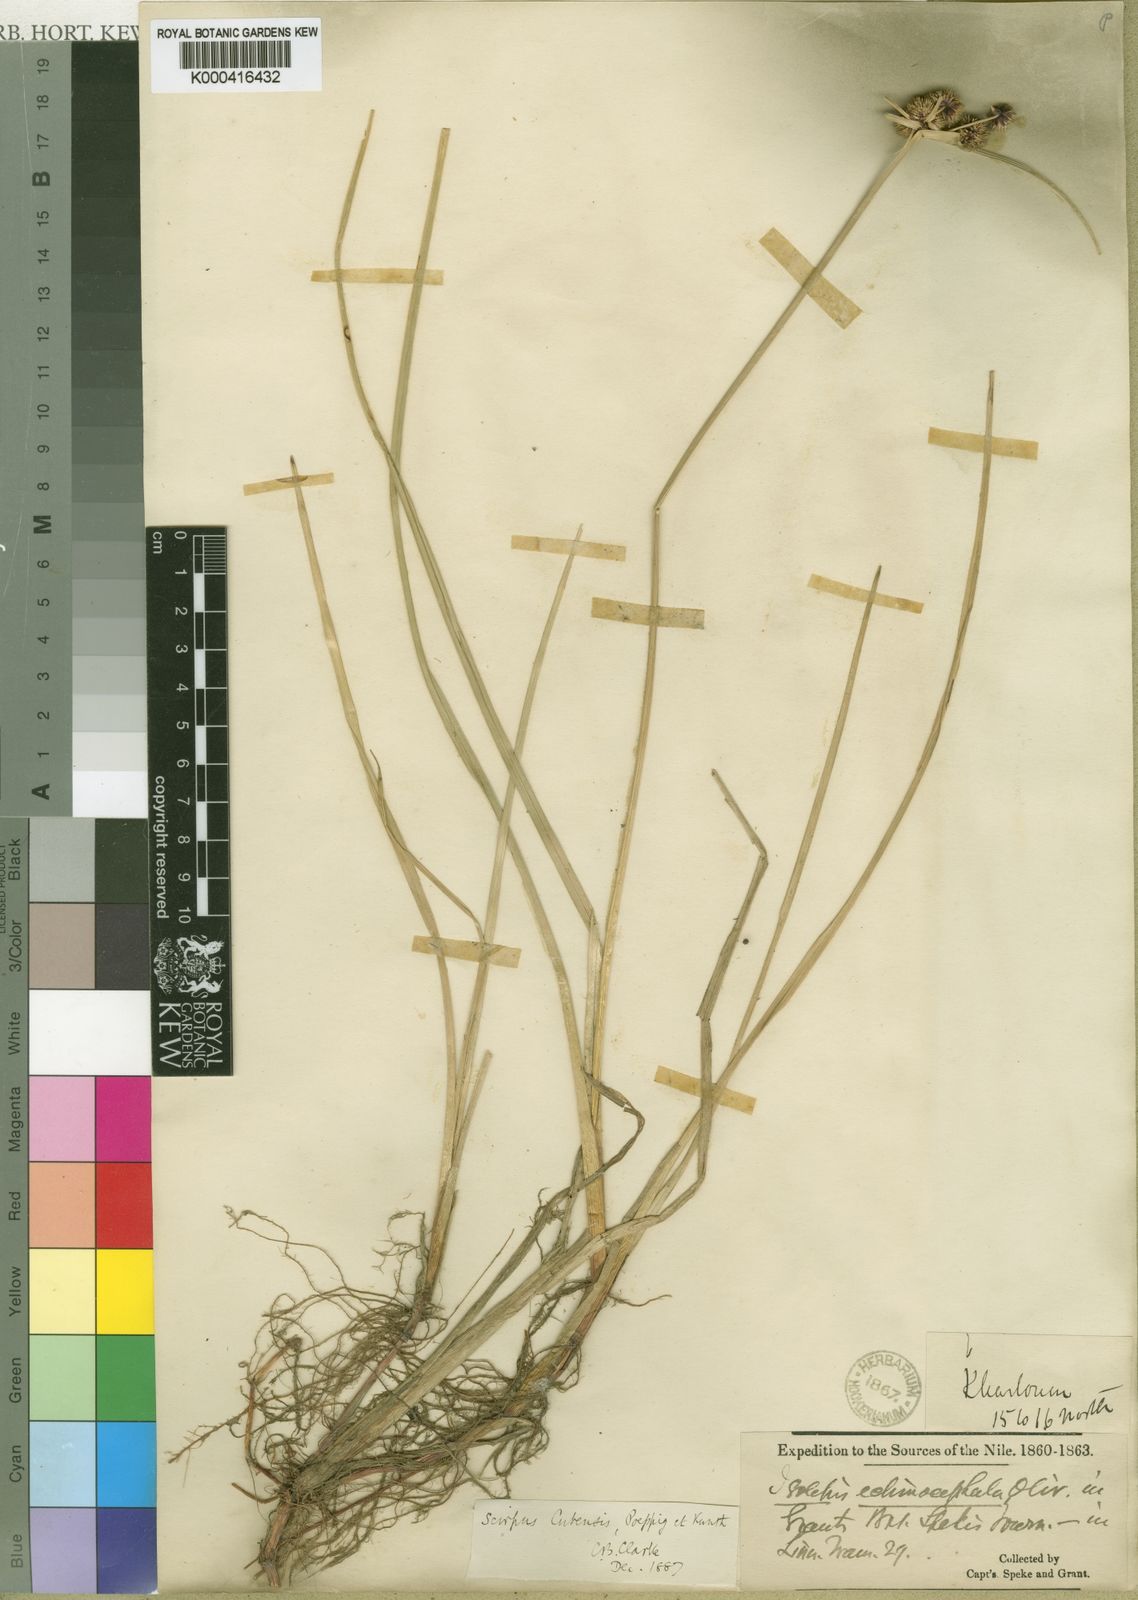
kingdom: Plantae
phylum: Tracheophyta
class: Liliopsida
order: Poales
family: Cyperaceae
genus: Cyperus
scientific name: Cyperus blepharoleptos
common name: Cuban bulrush
